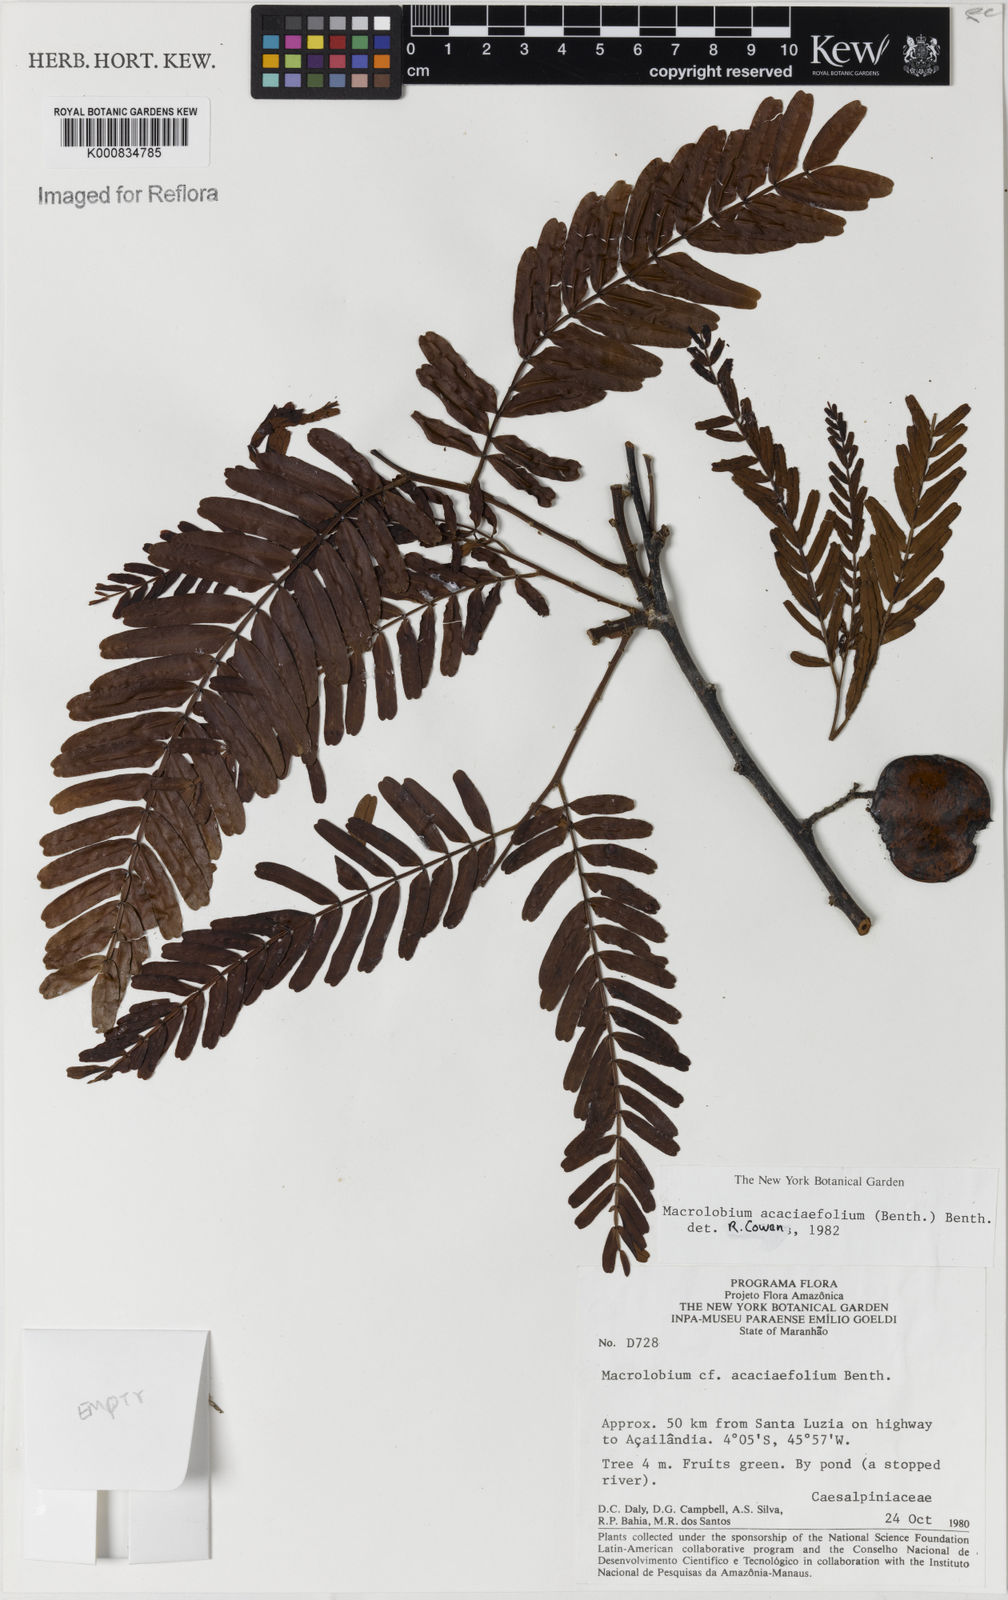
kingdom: Plantae
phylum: Tracheophyta
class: Magnoliopsida
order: Fabales
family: Fabaceae
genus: Macrolobium
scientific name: Macrolobium acaciifolium
